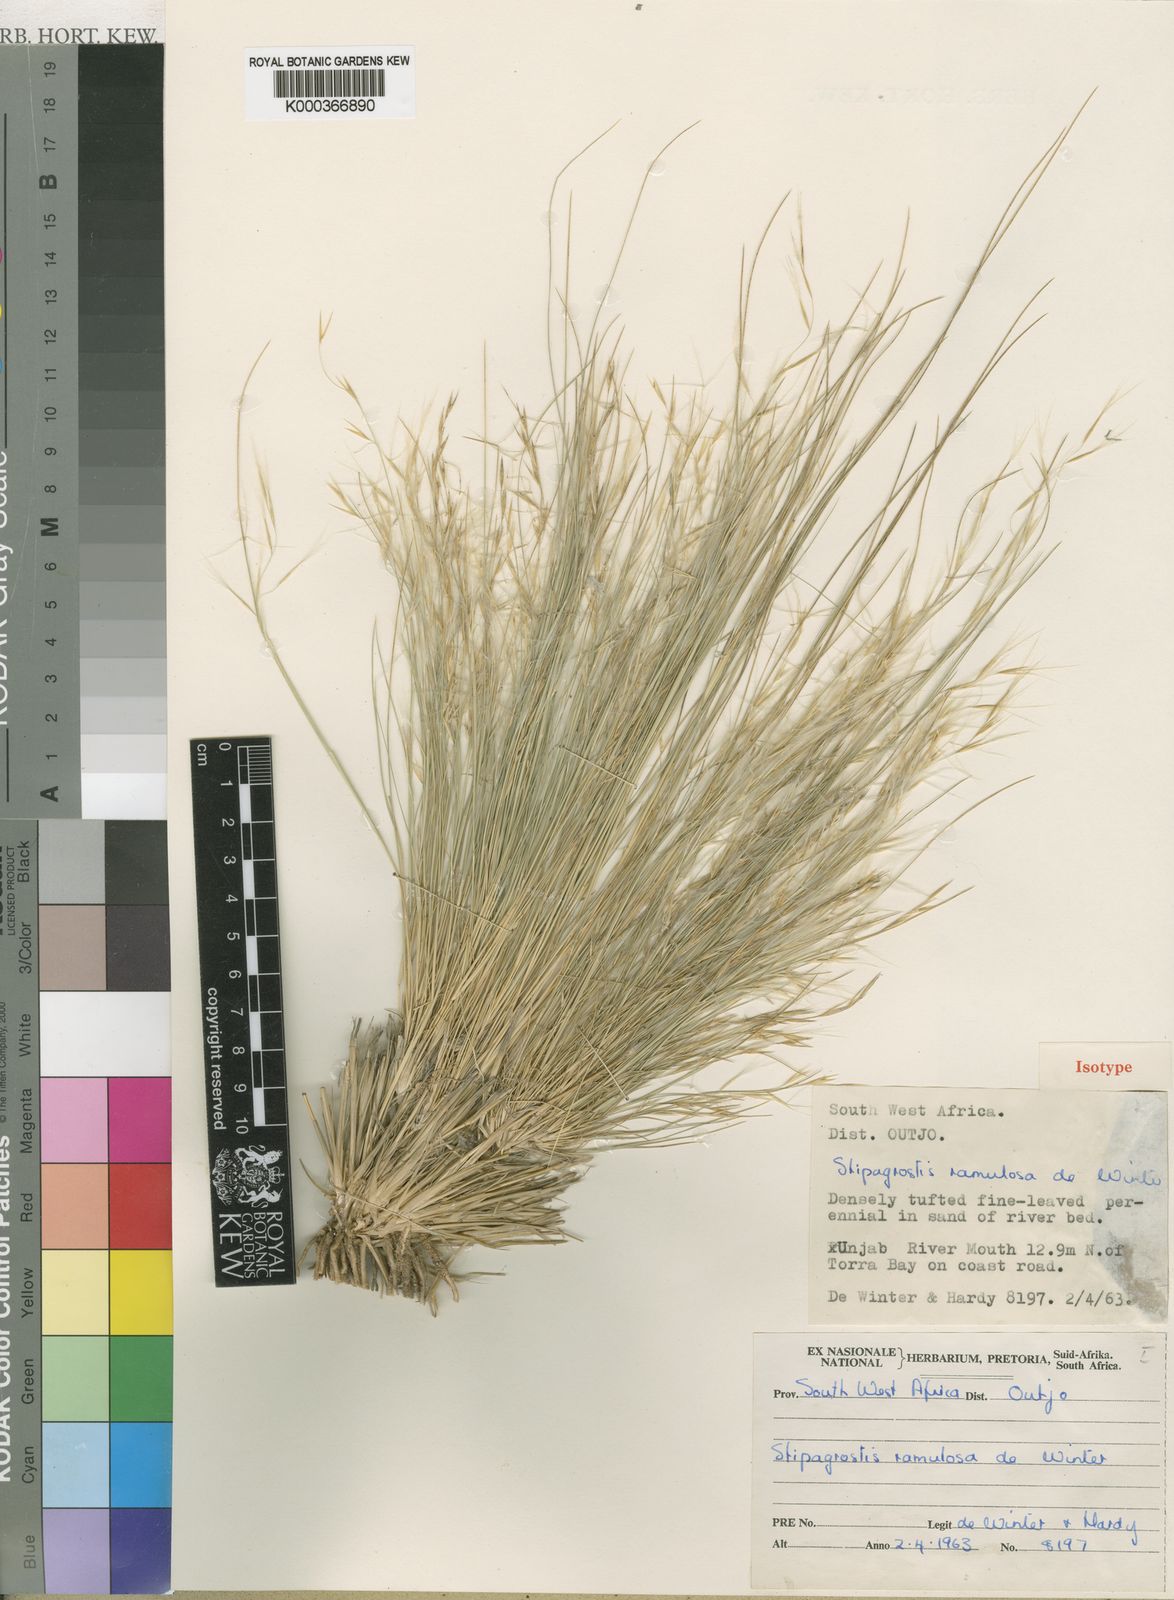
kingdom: Plantae
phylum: Tracheophyta
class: Liliopsida
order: Poales
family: Poaceae
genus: Stipagrostis
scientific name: Stipagrostis ramulosa
